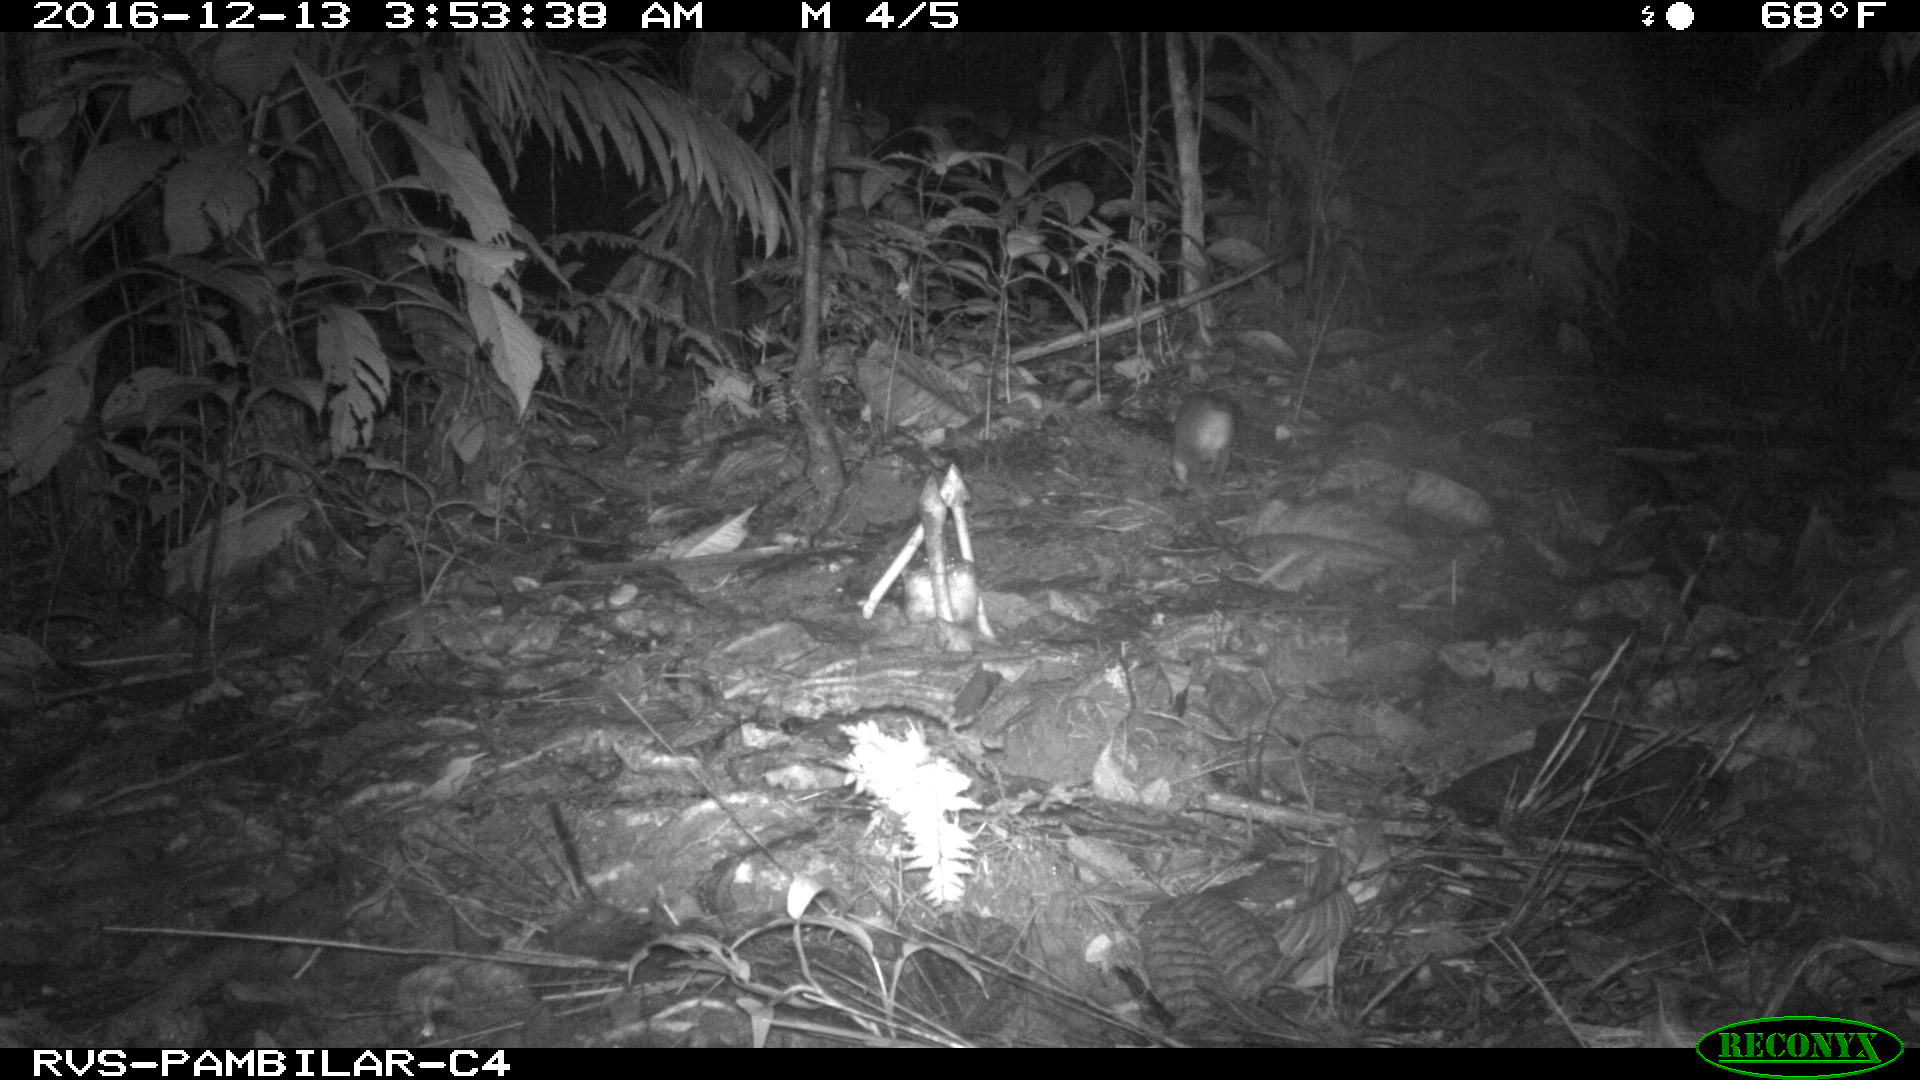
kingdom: Animalia
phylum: Chordata
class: Mammalia
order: Rodentia
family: Echimyidae
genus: Proechimys
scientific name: Proechimys
